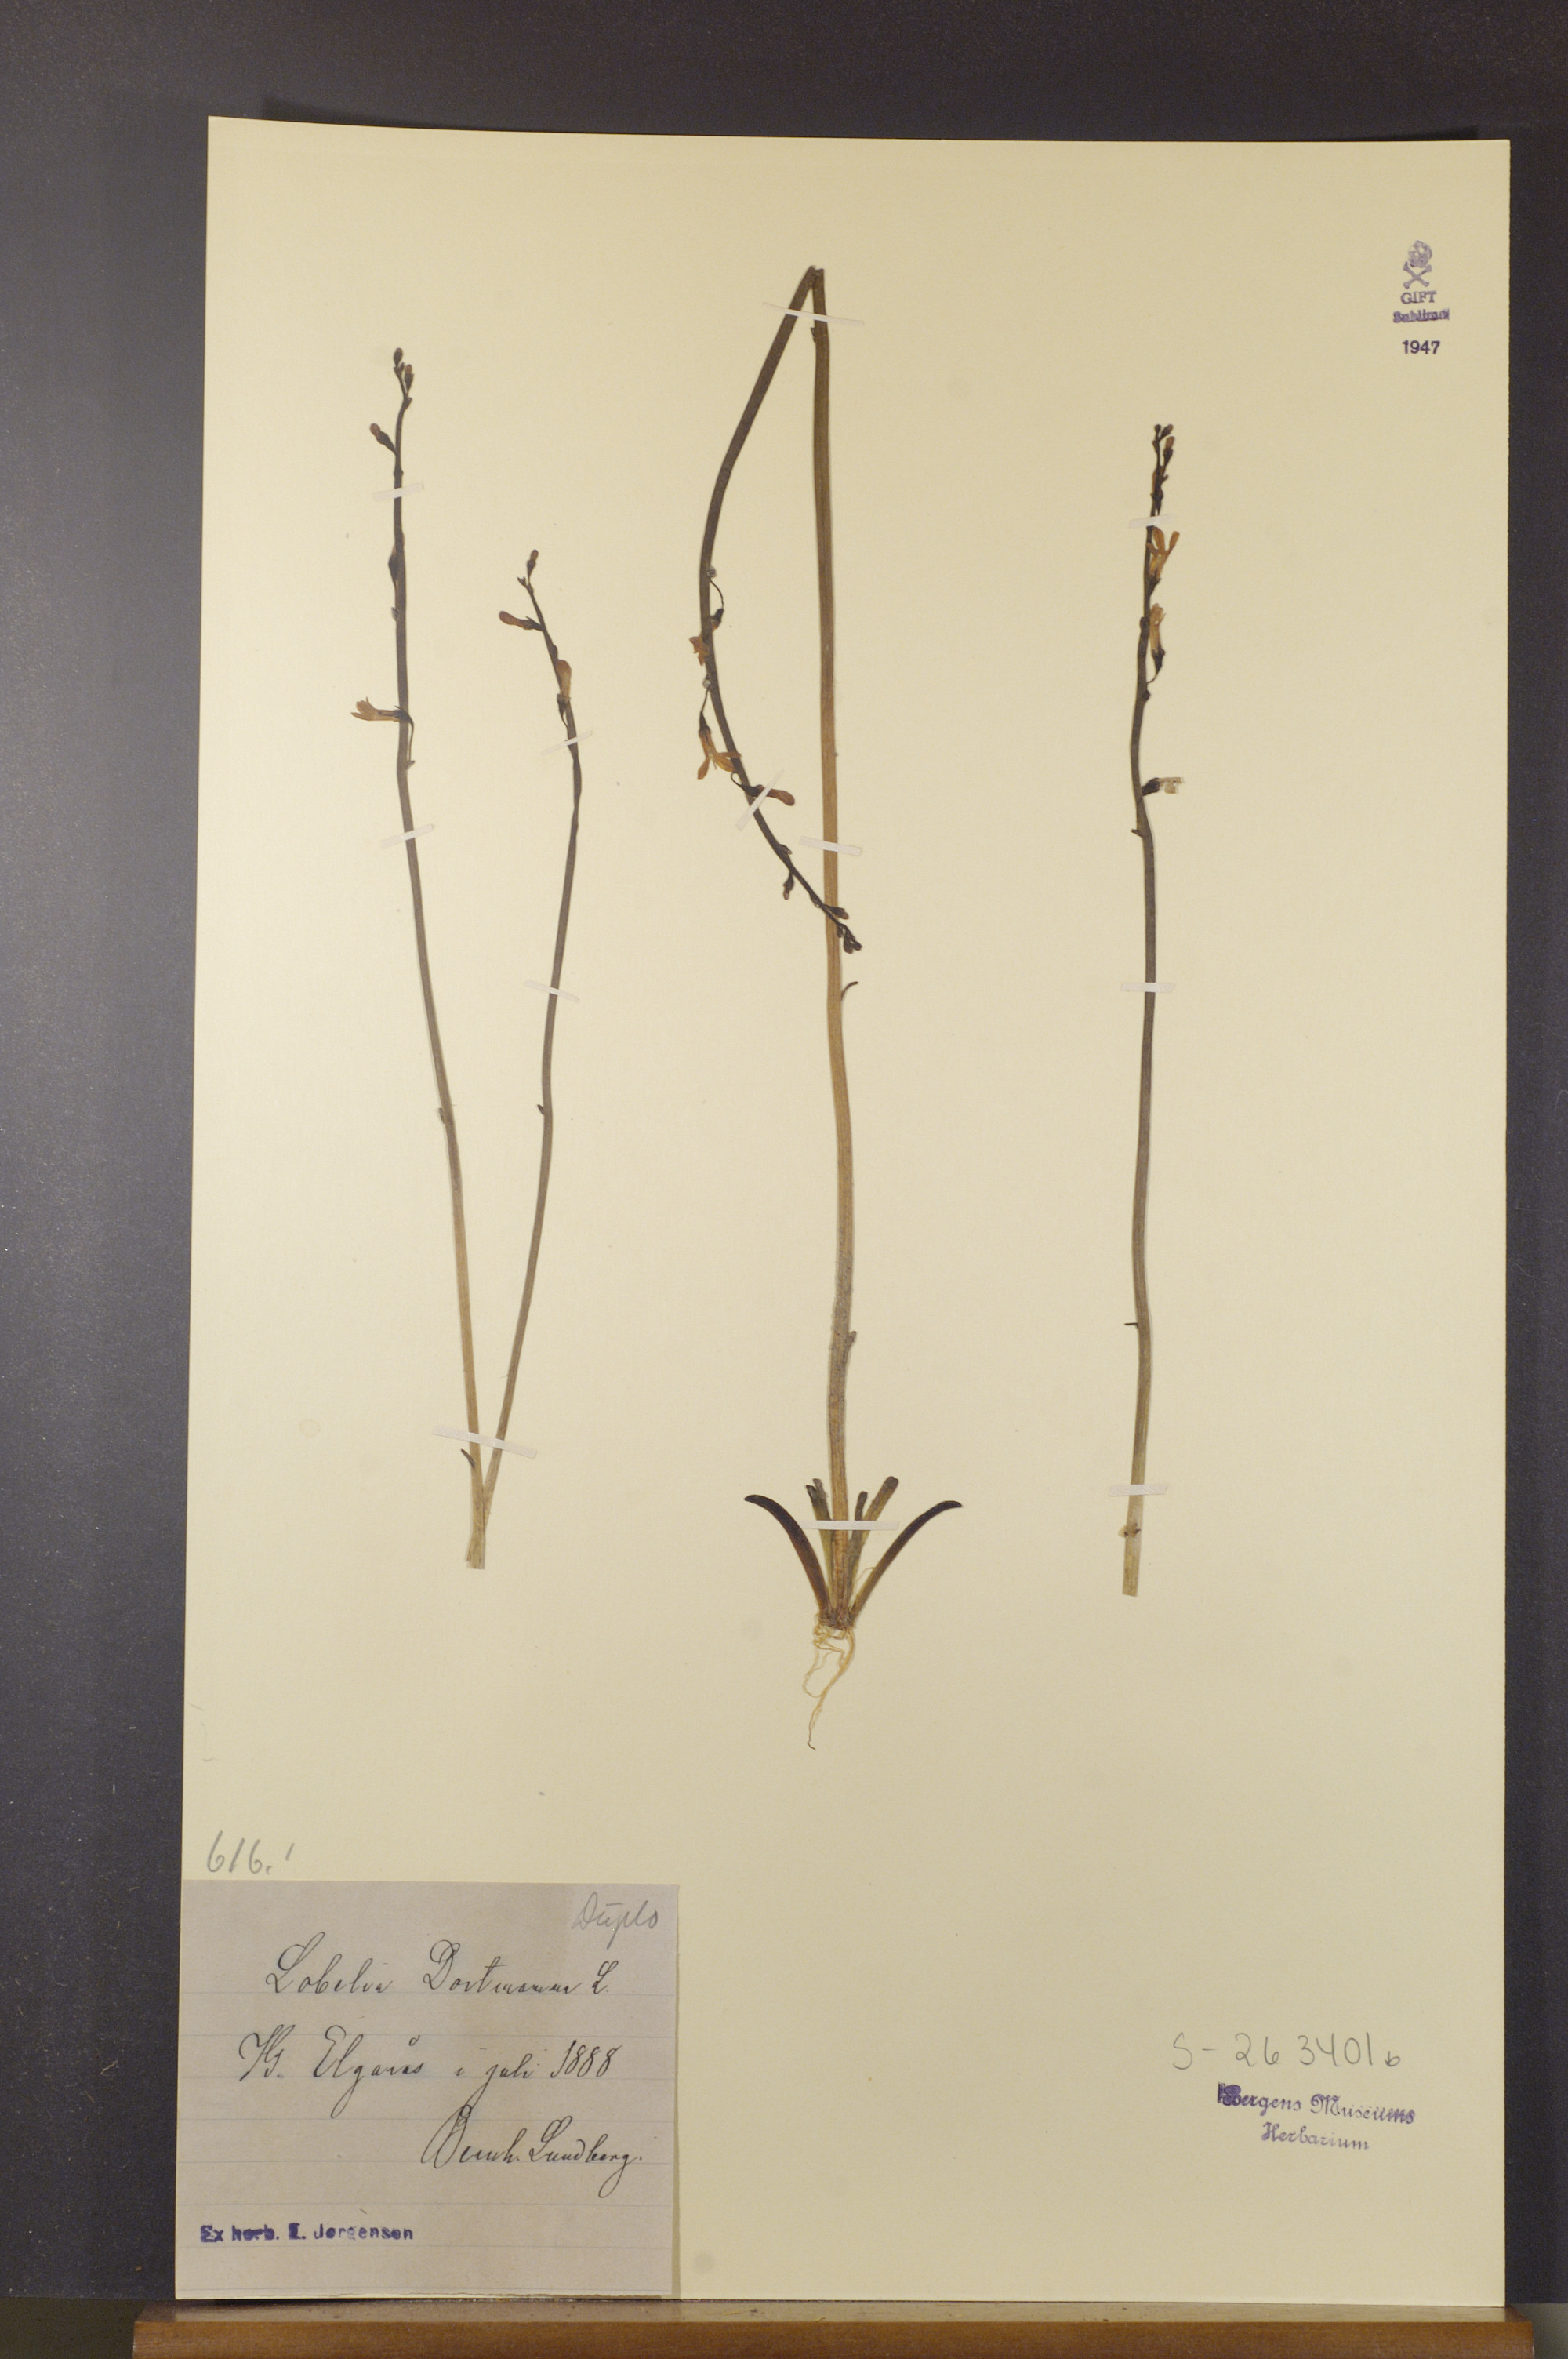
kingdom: Plantae
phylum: Tracheophyta
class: Magnoliopsida
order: Asterales
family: Campanulaceae
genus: Lobelia
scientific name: Lobelia dortmanna
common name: Water lobelia
